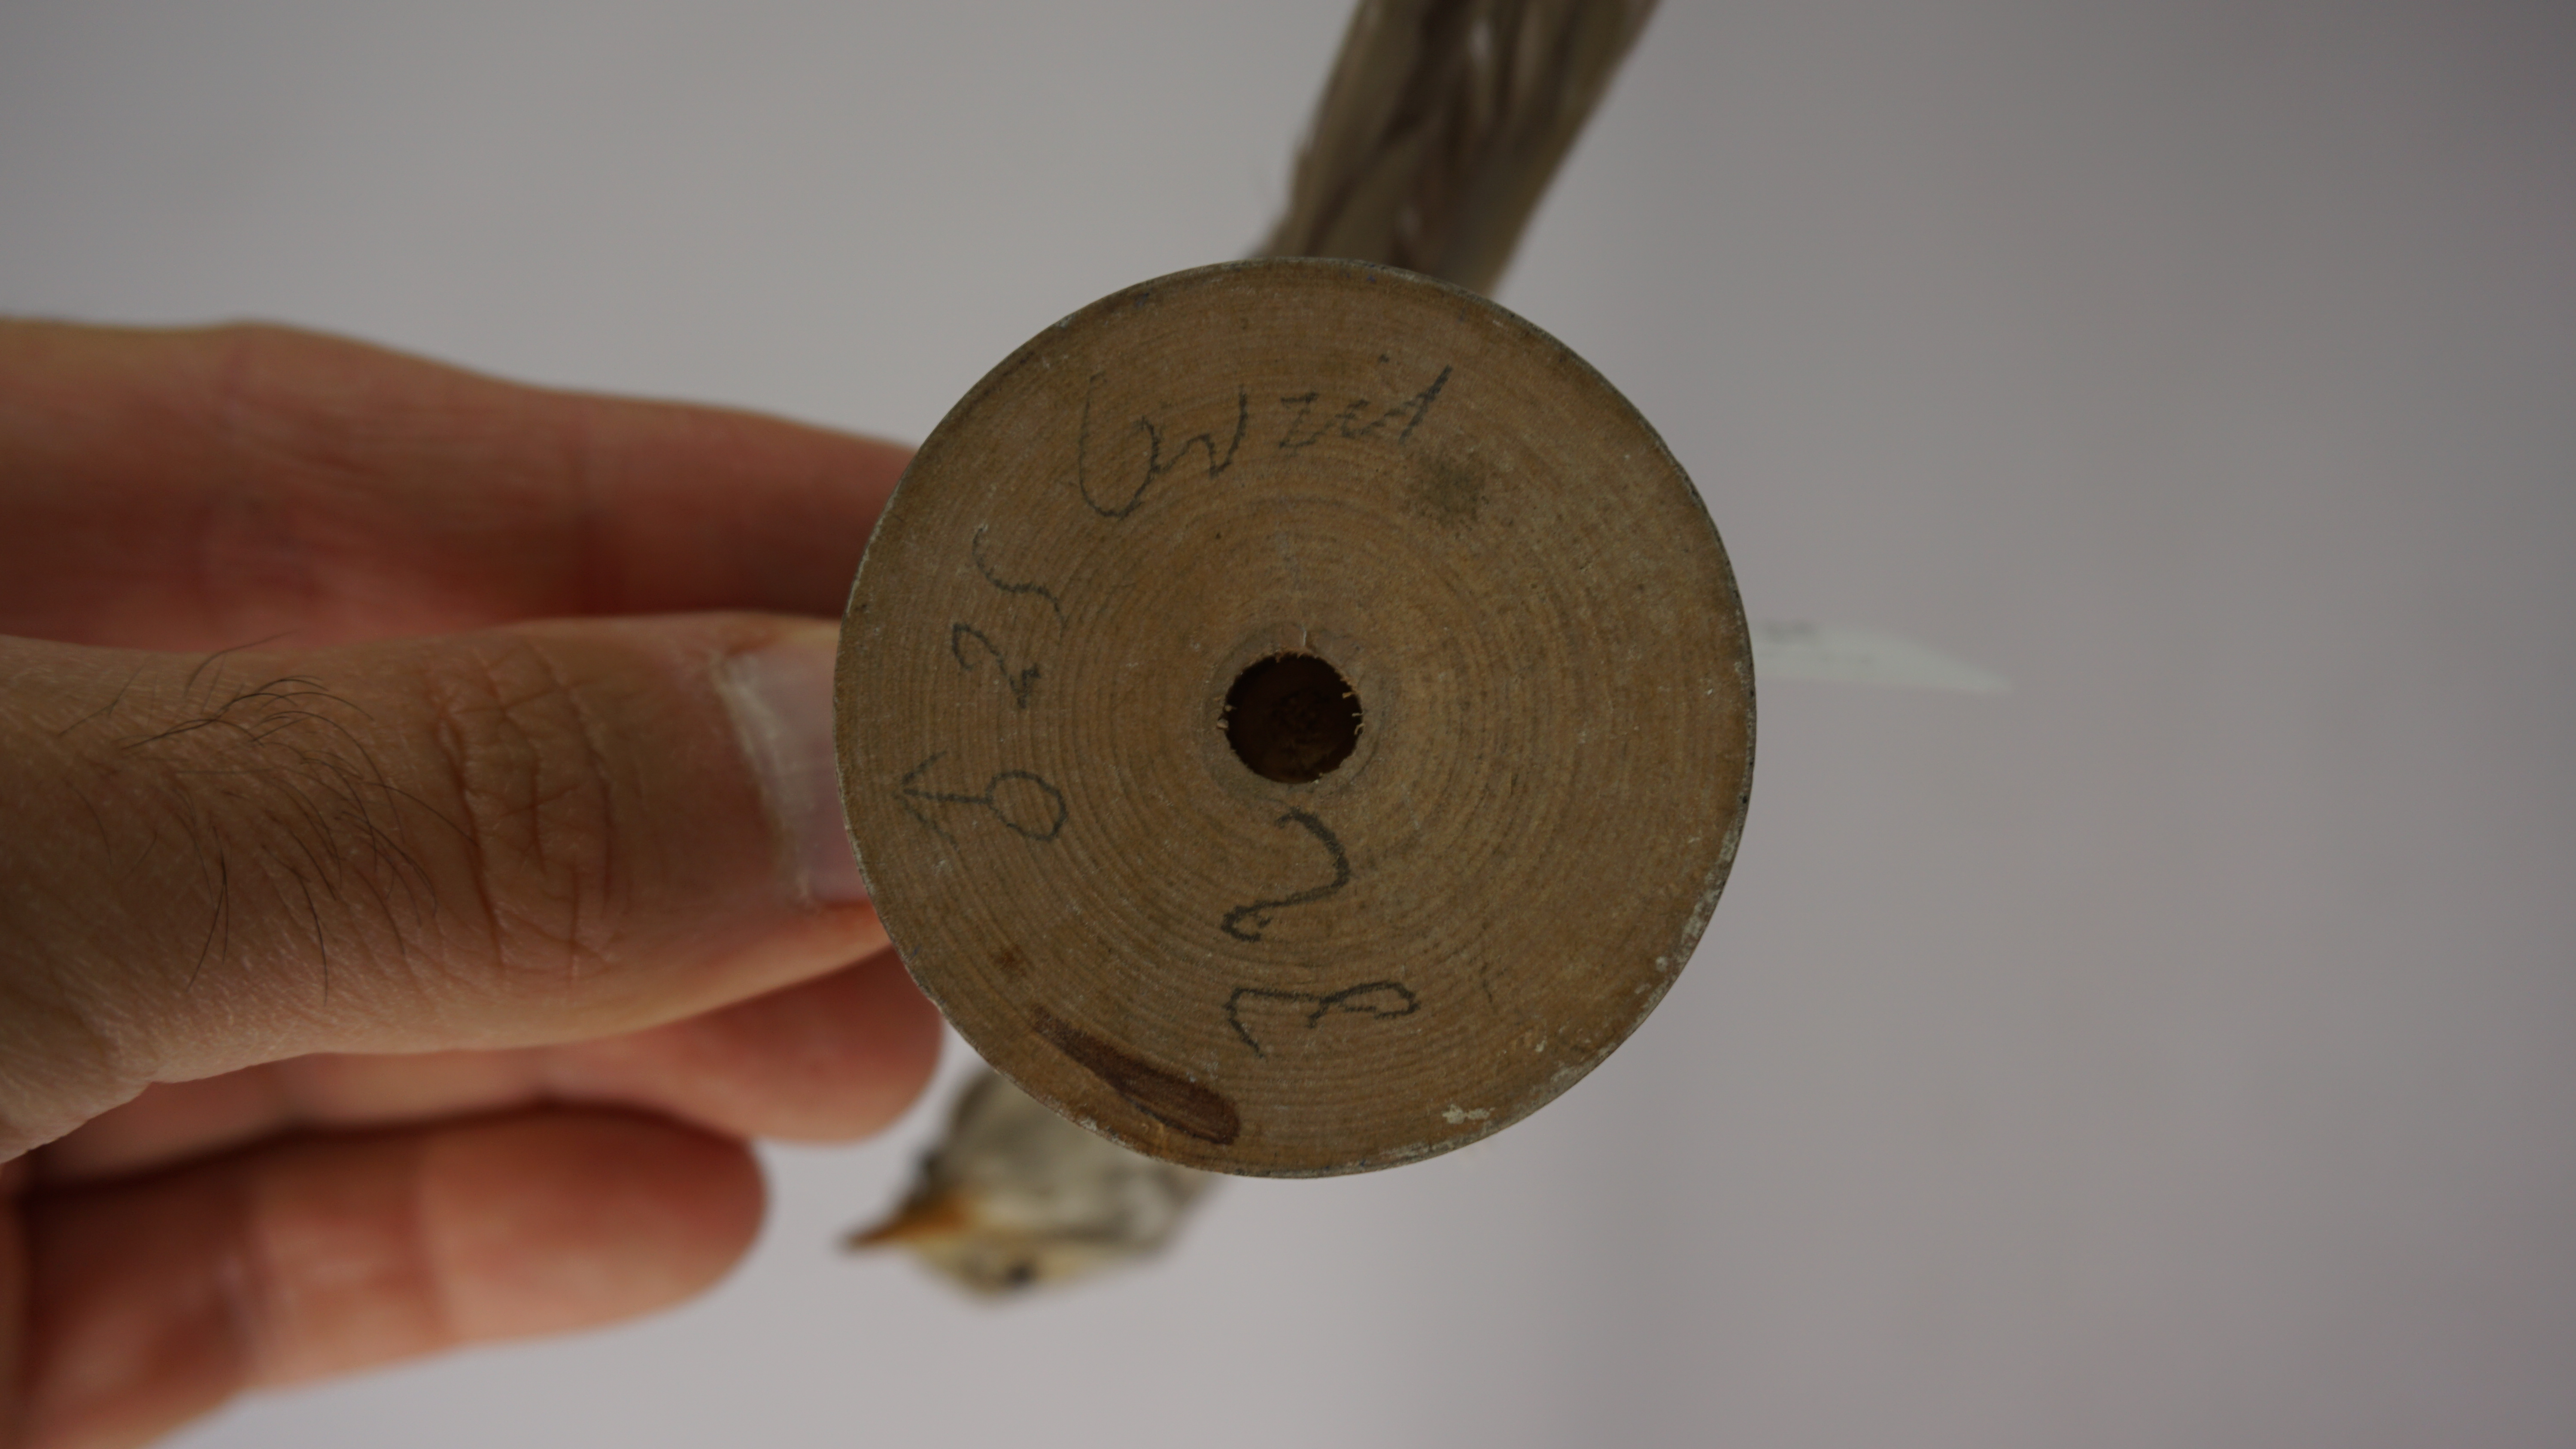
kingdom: Animalia
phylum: Chordata
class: Aves
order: Passeriformes
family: Sylviidae
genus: Sylvia
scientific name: Sylvia communis
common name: Common whitethroat
